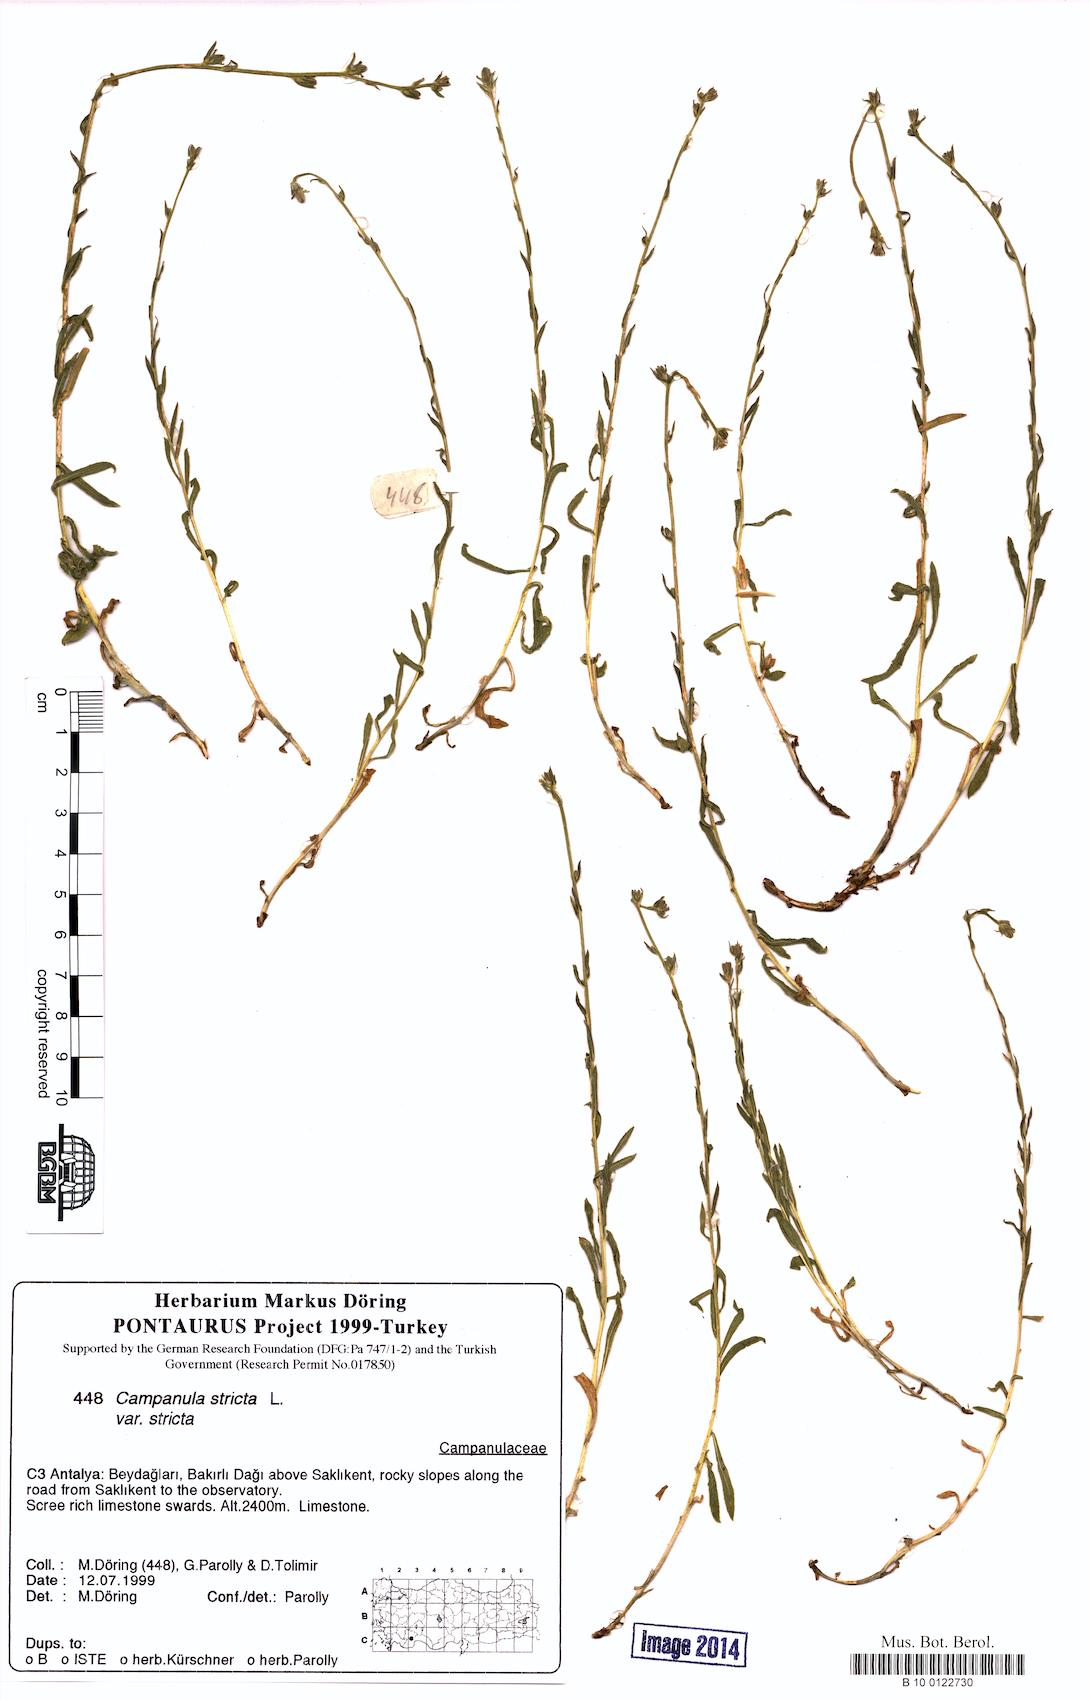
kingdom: Plantae
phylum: Tracheophyta
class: Magnoliopsida
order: Asterales
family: Campanulaceae
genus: Campanula
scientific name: Campanula stricta
